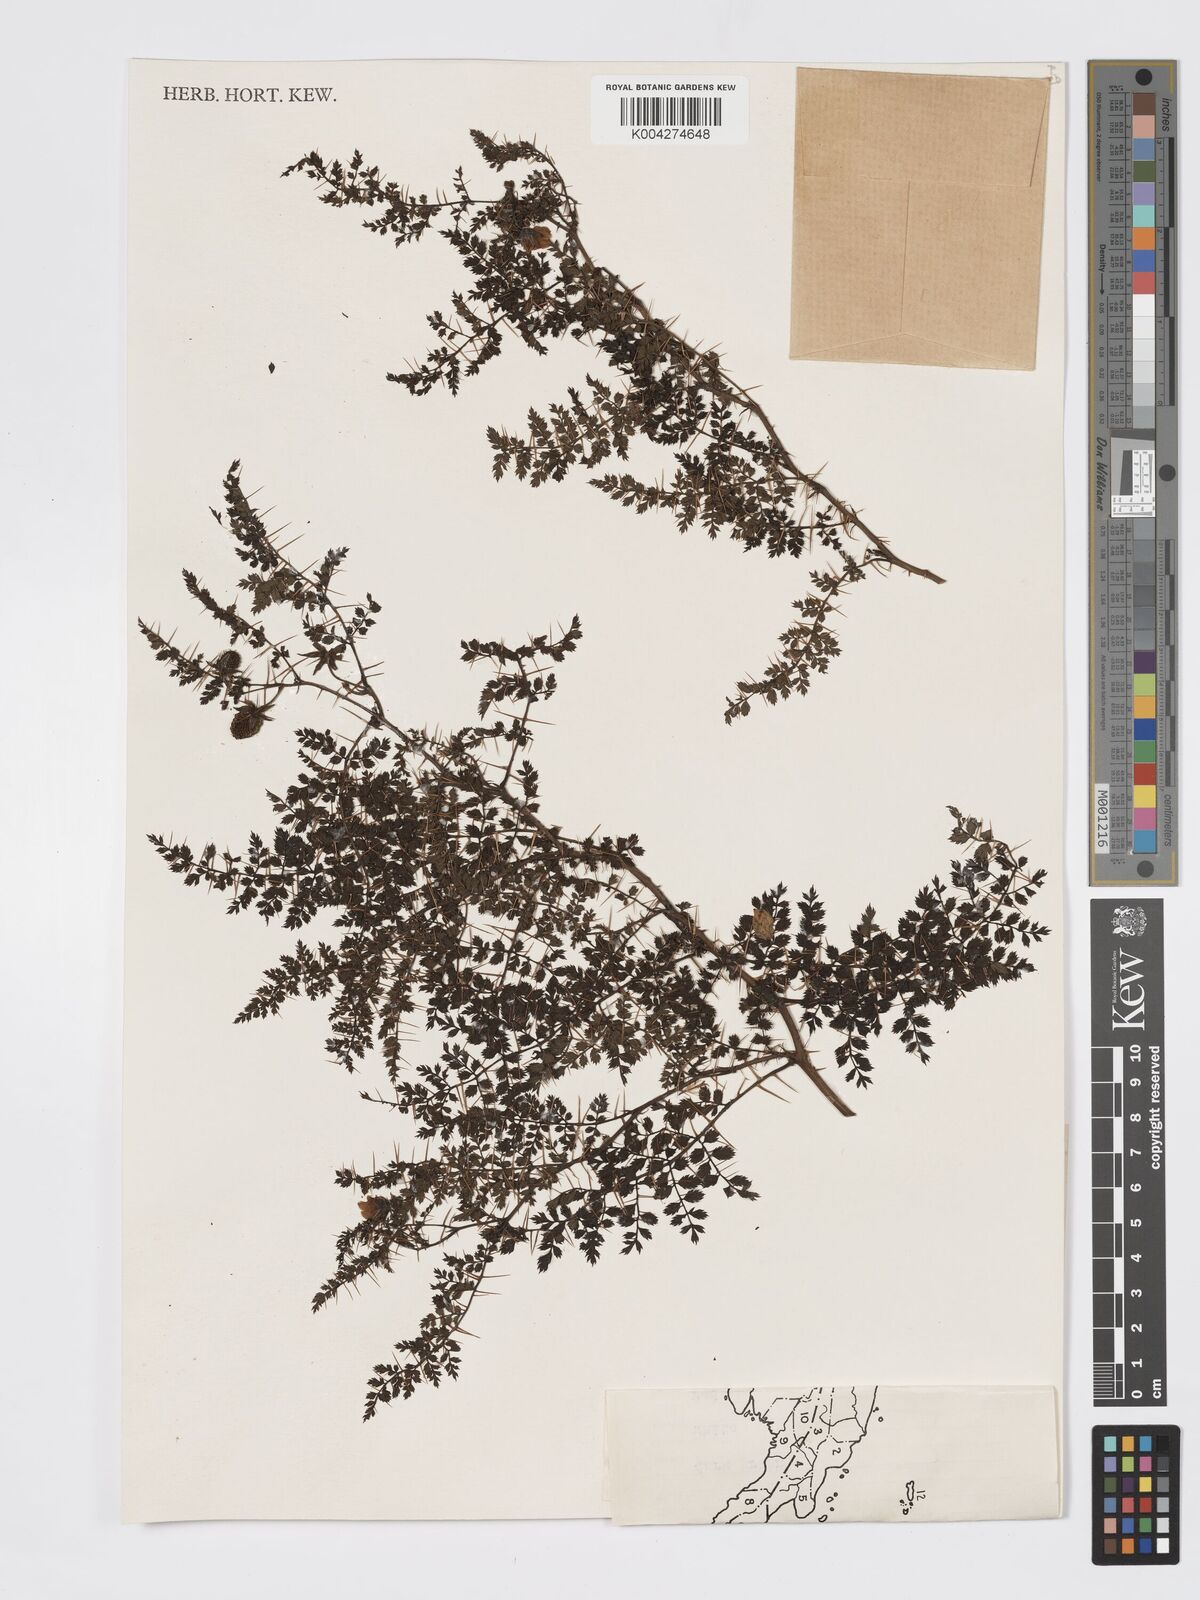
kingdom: Plantae
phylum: Tracheophyta
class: Magnoliopsida
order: Rosales
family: Rosaceae
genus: Rubus
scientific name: Rubus montis-wilhelmii
